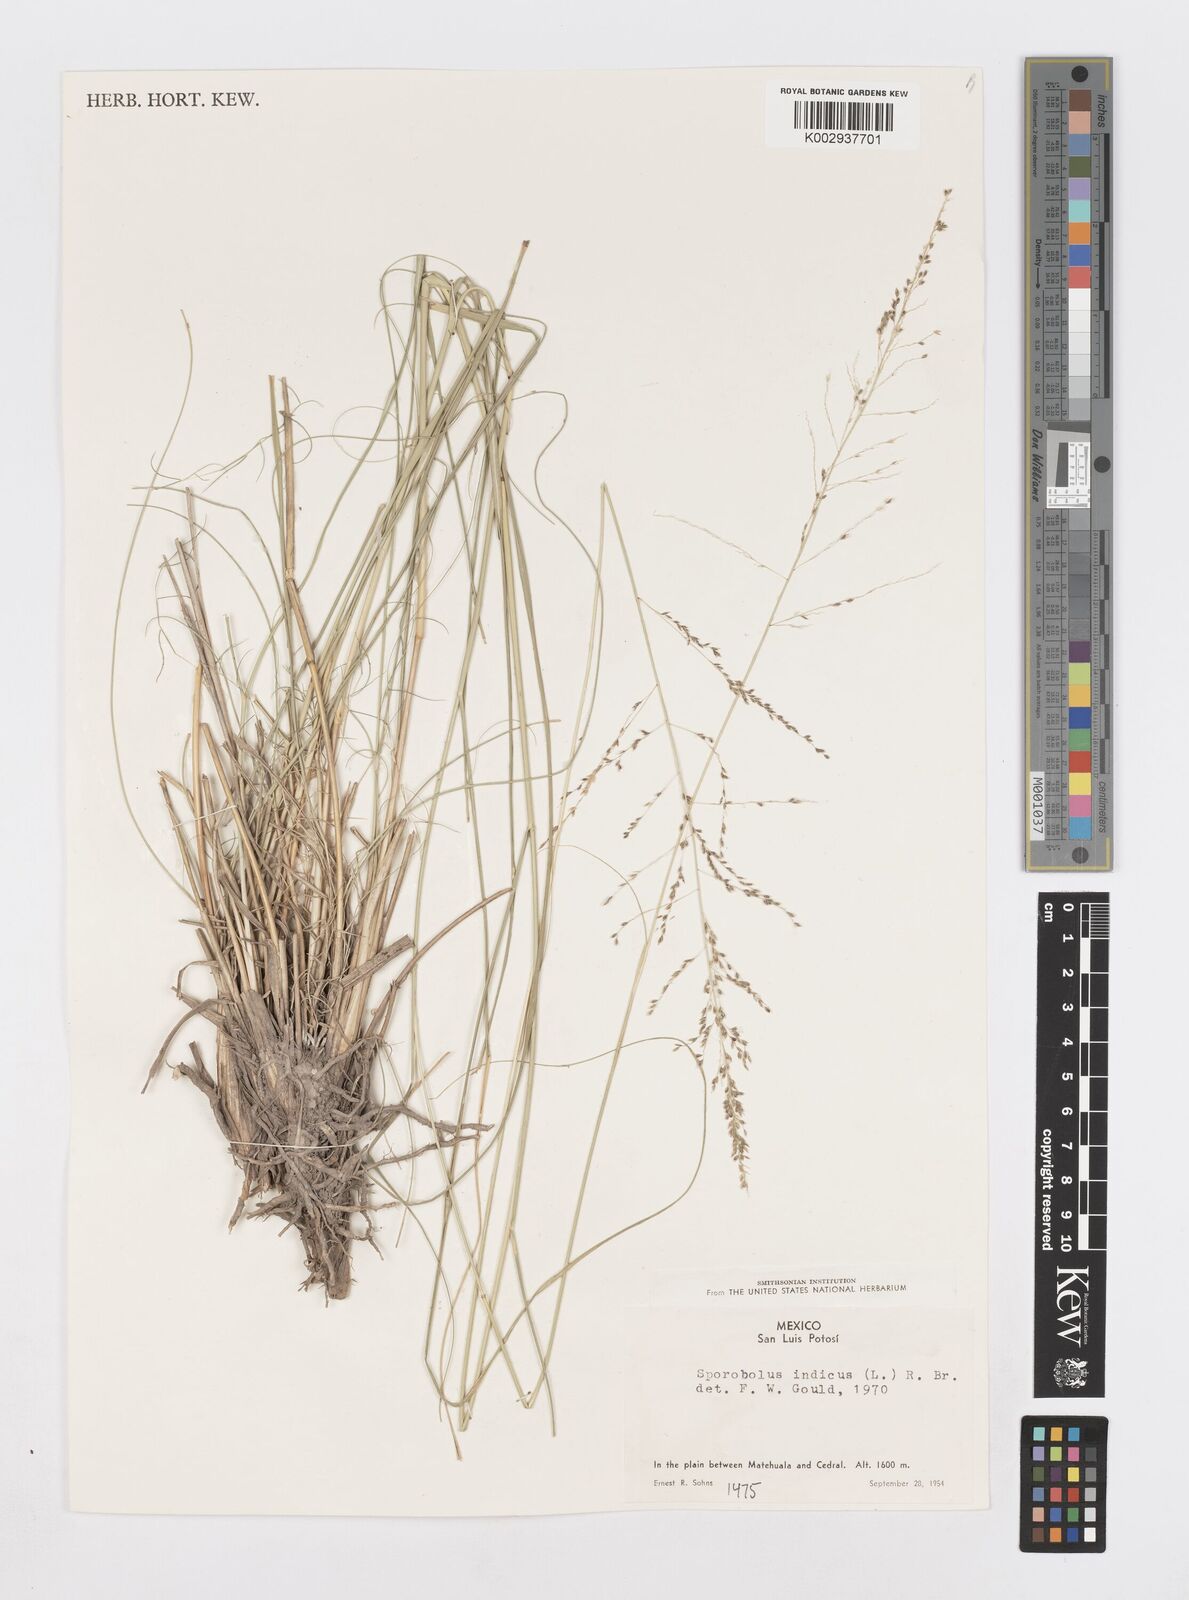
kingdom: Plantae
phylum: Tracheophyta
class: Liliopsida
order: Poales
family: Poaceae
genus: Sporobolus
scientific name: Sporobolus junceus
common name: Lizard grass
